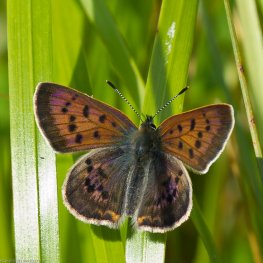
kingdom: Animalia
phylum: Arthropoda
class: Insecta
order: Lepidoptera
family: Lycaenidae
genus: Epidemia
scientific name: Epidemia dorcas
